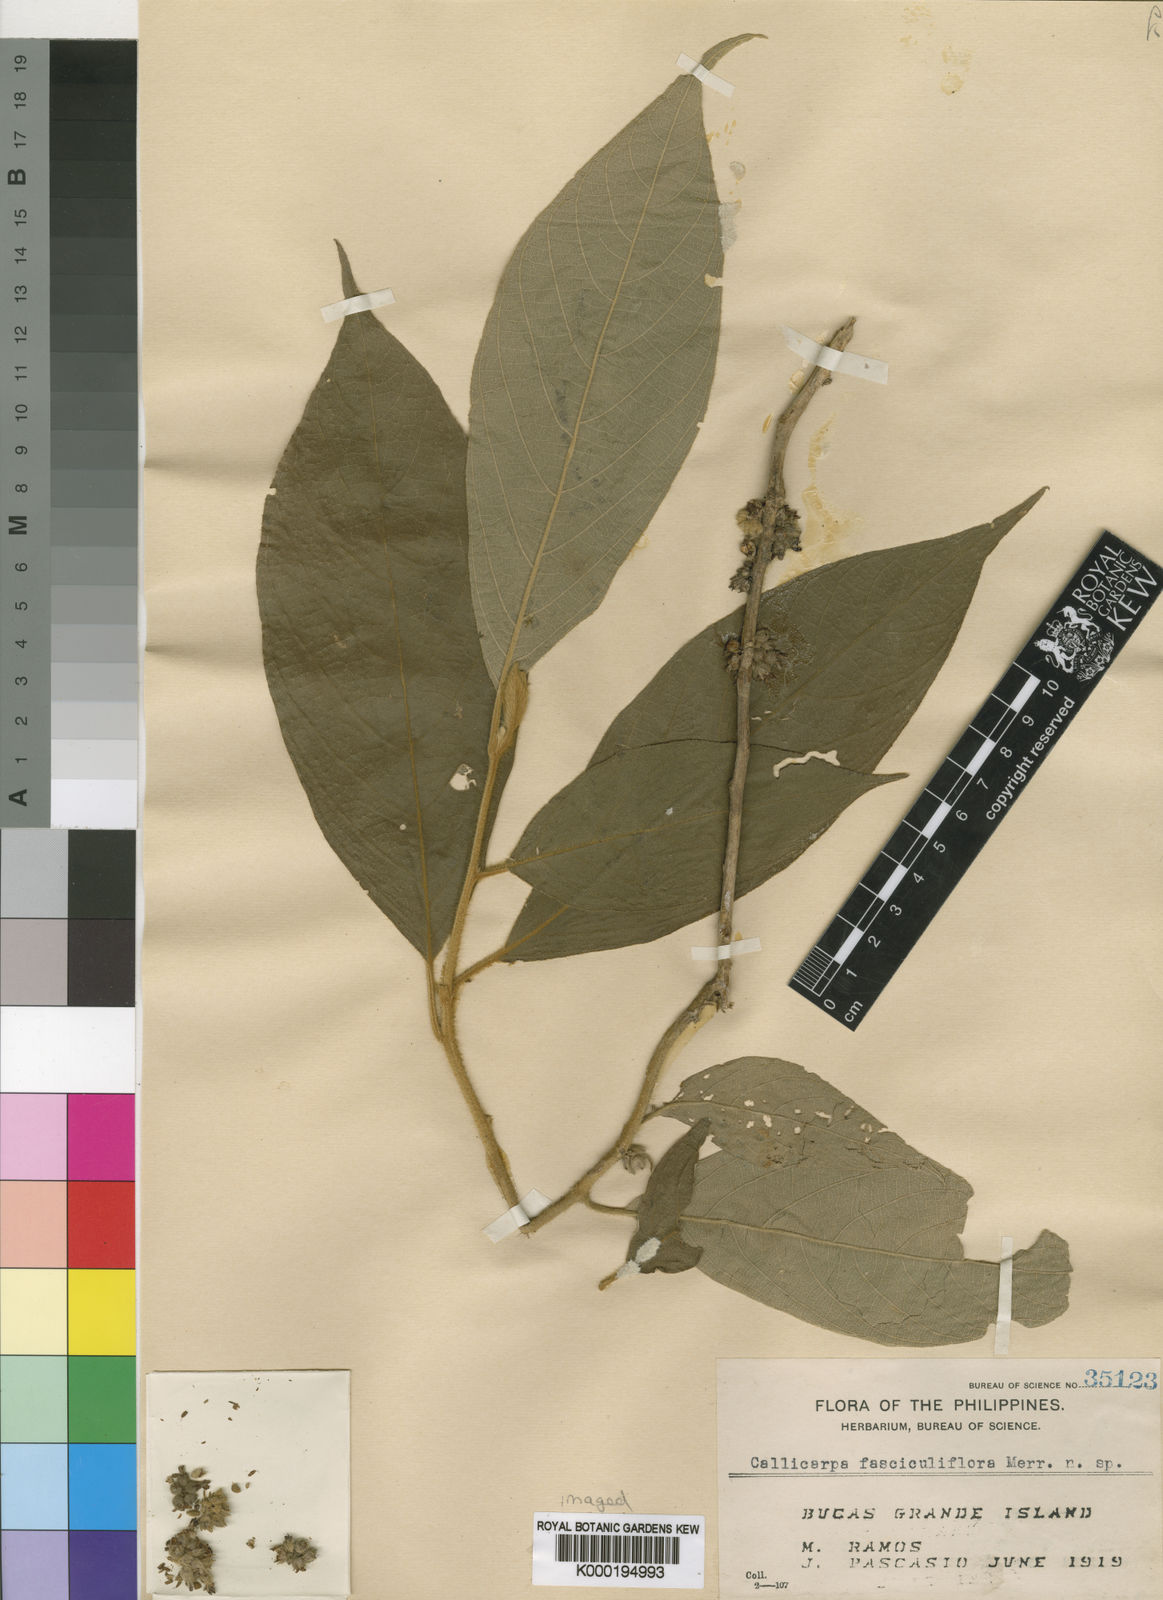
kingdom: Plantae
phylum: Tracheophyta
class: Magnoliopsida
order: Lamiales
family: Lamiaceae
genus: Callicarpa
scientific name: Callicarpa fasciculiflora
